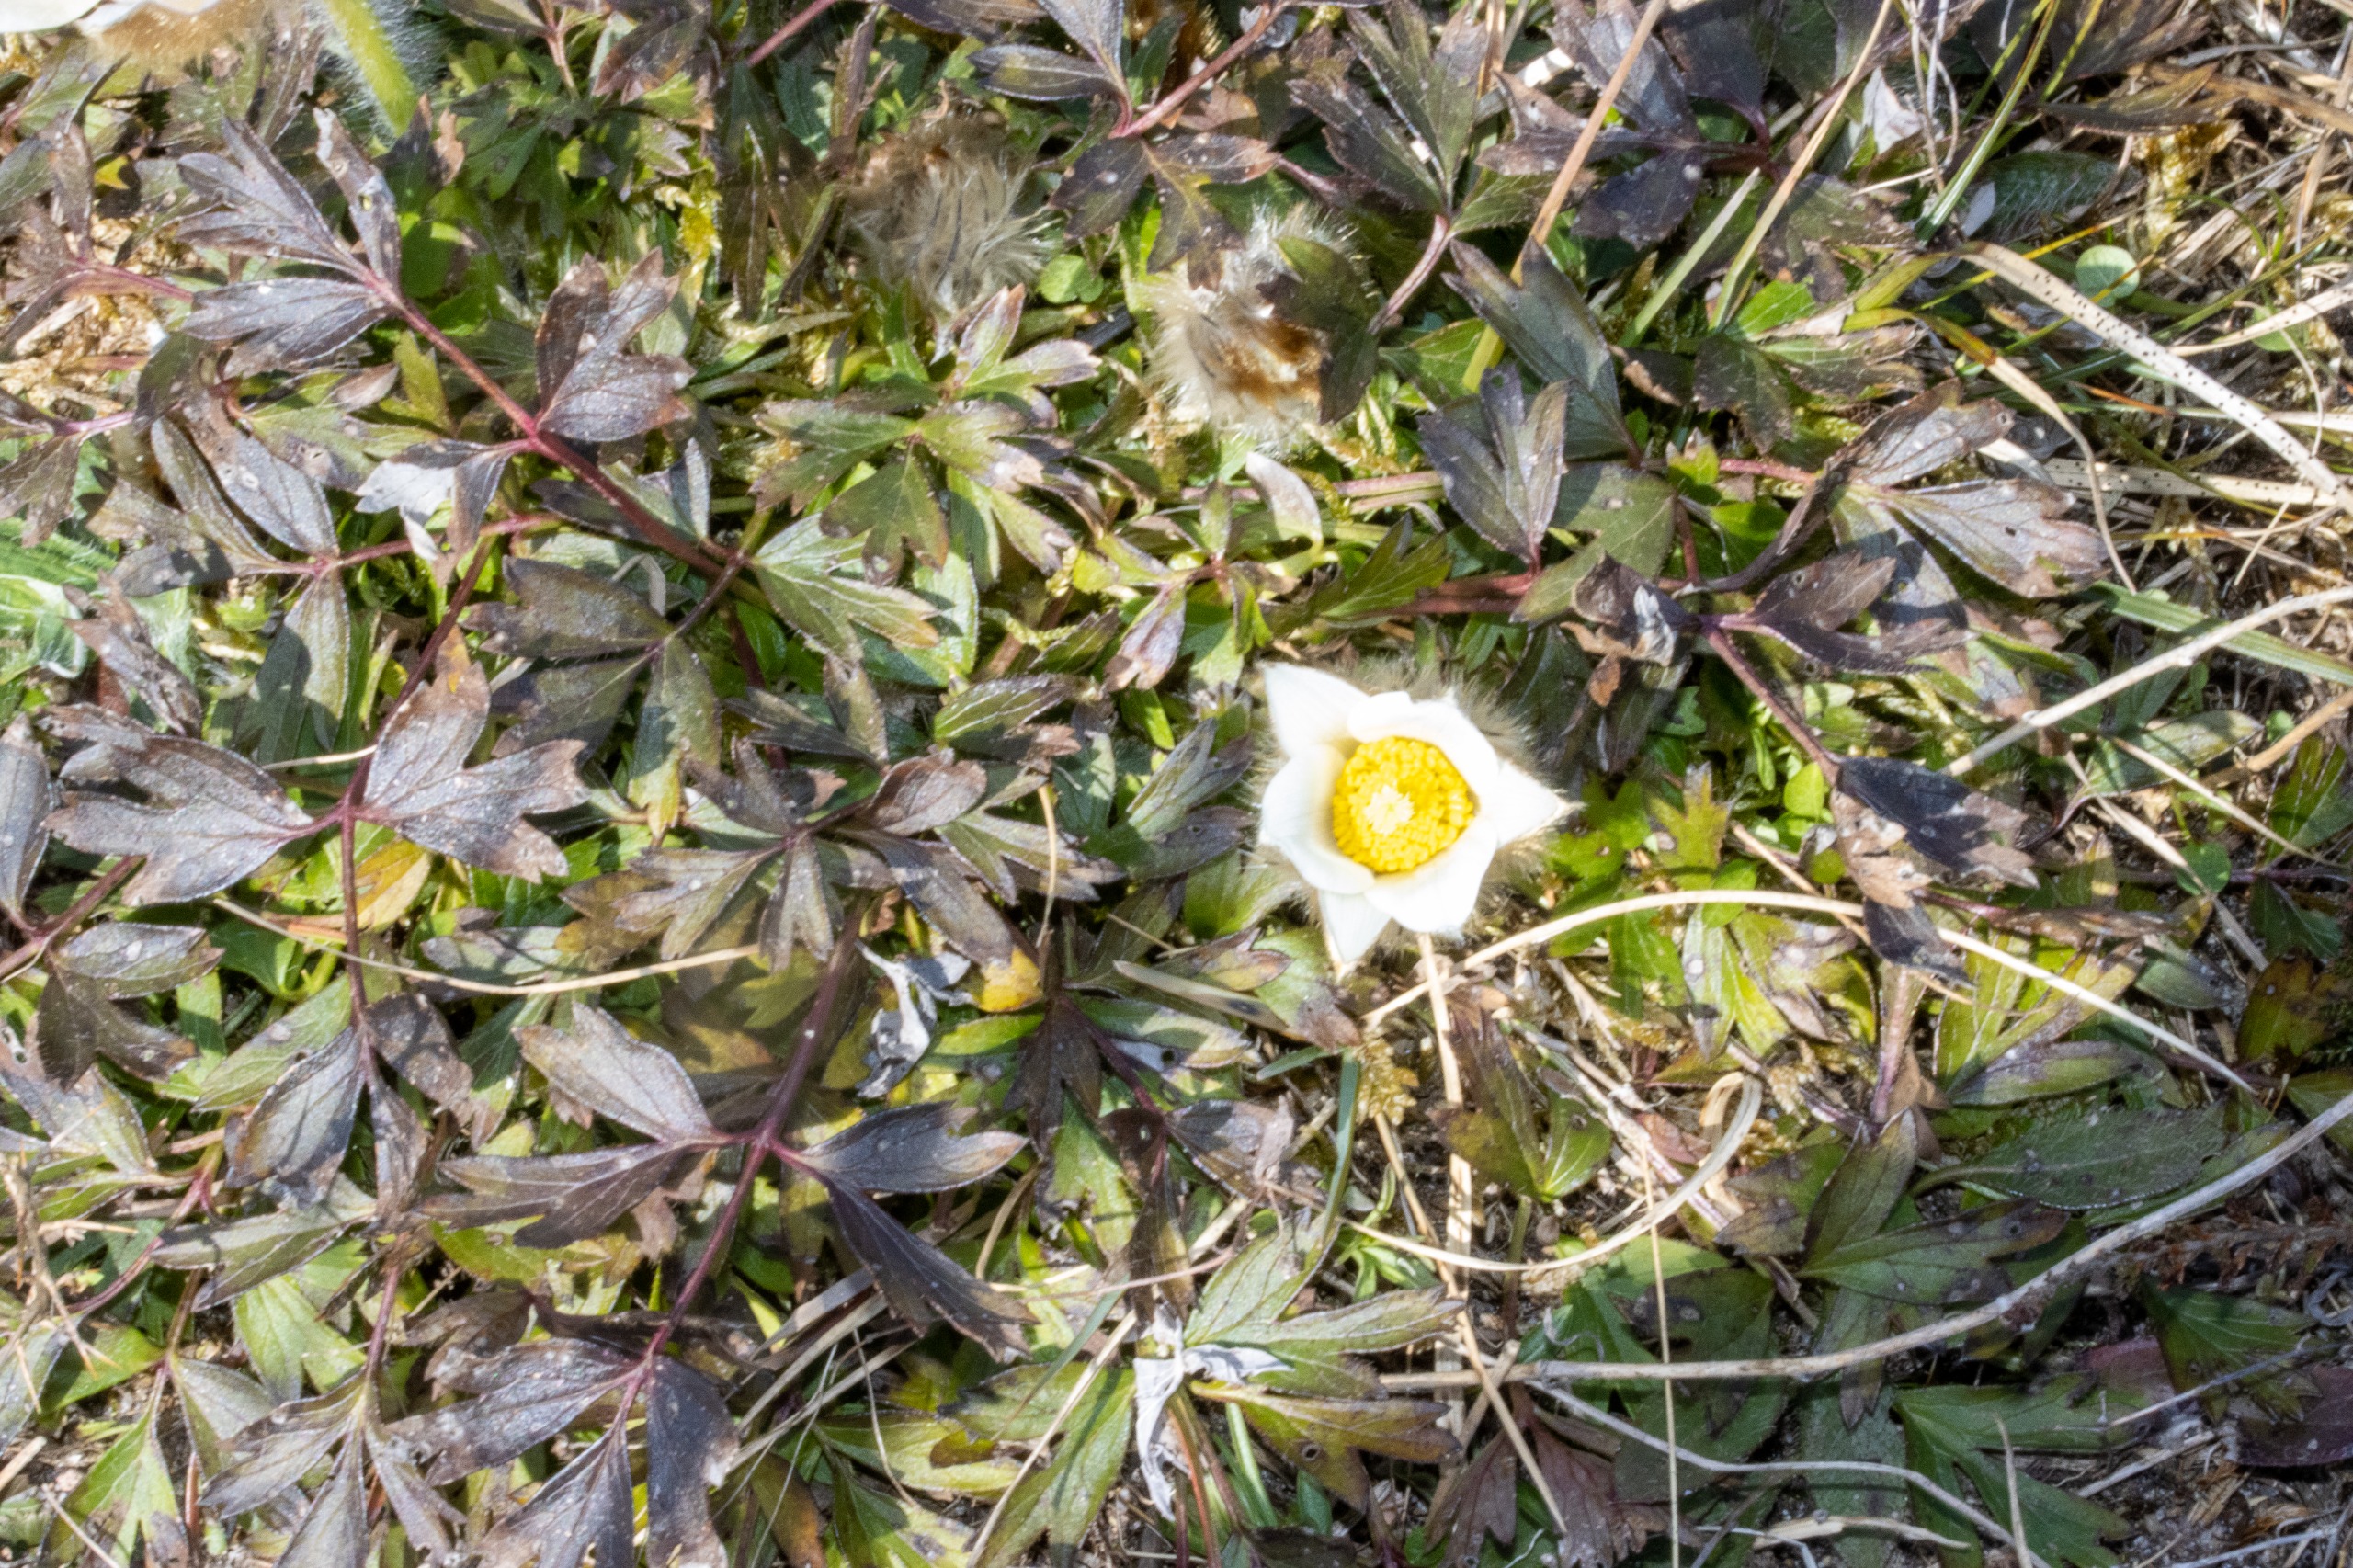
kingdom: Plantae
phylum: Tracheophyta
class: Magnoliopsida
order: Ranunculales
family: Ranunculaceae
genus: Pulsatilla
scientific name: Pulsatilla vernalis
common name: Vår-kobjælde
